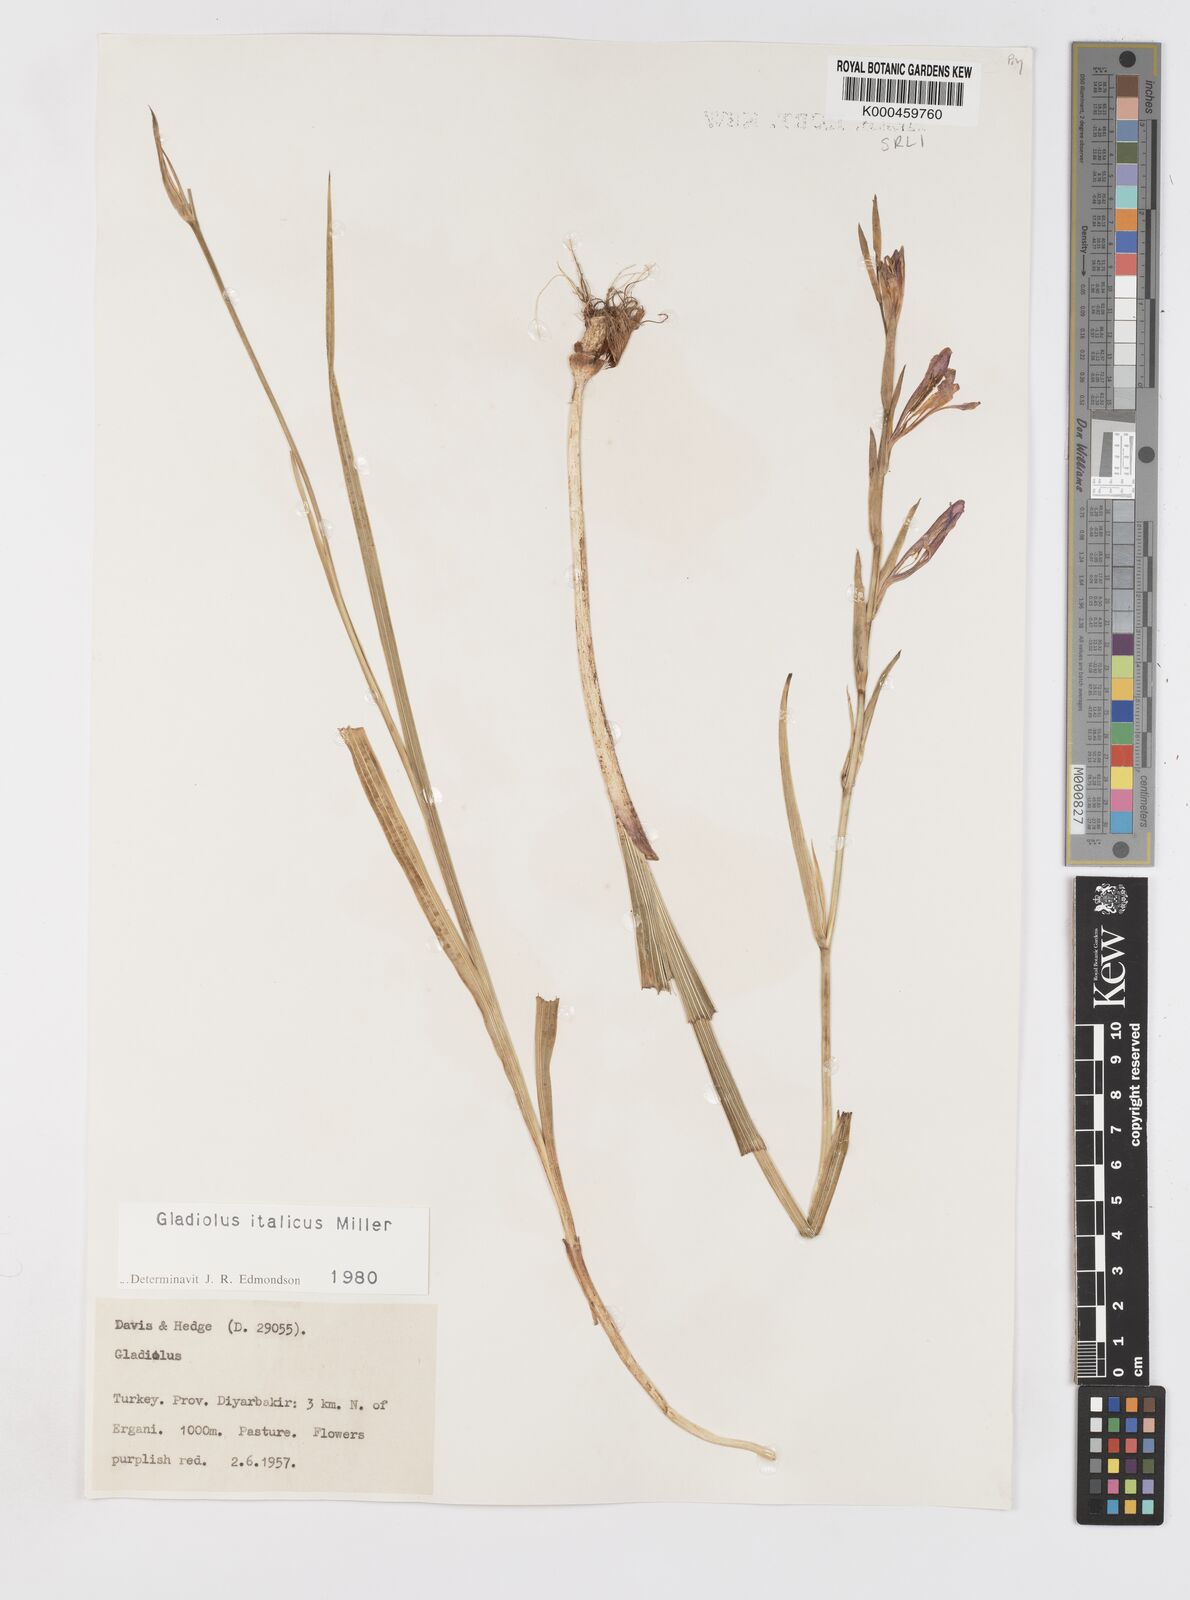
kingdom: Plantae
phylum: Tracheophyta
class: Liliopsida
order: Asparagales
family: Iridaceae
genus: Gladiolus
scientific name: Gladiolus italicus
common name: Field gladiolus
